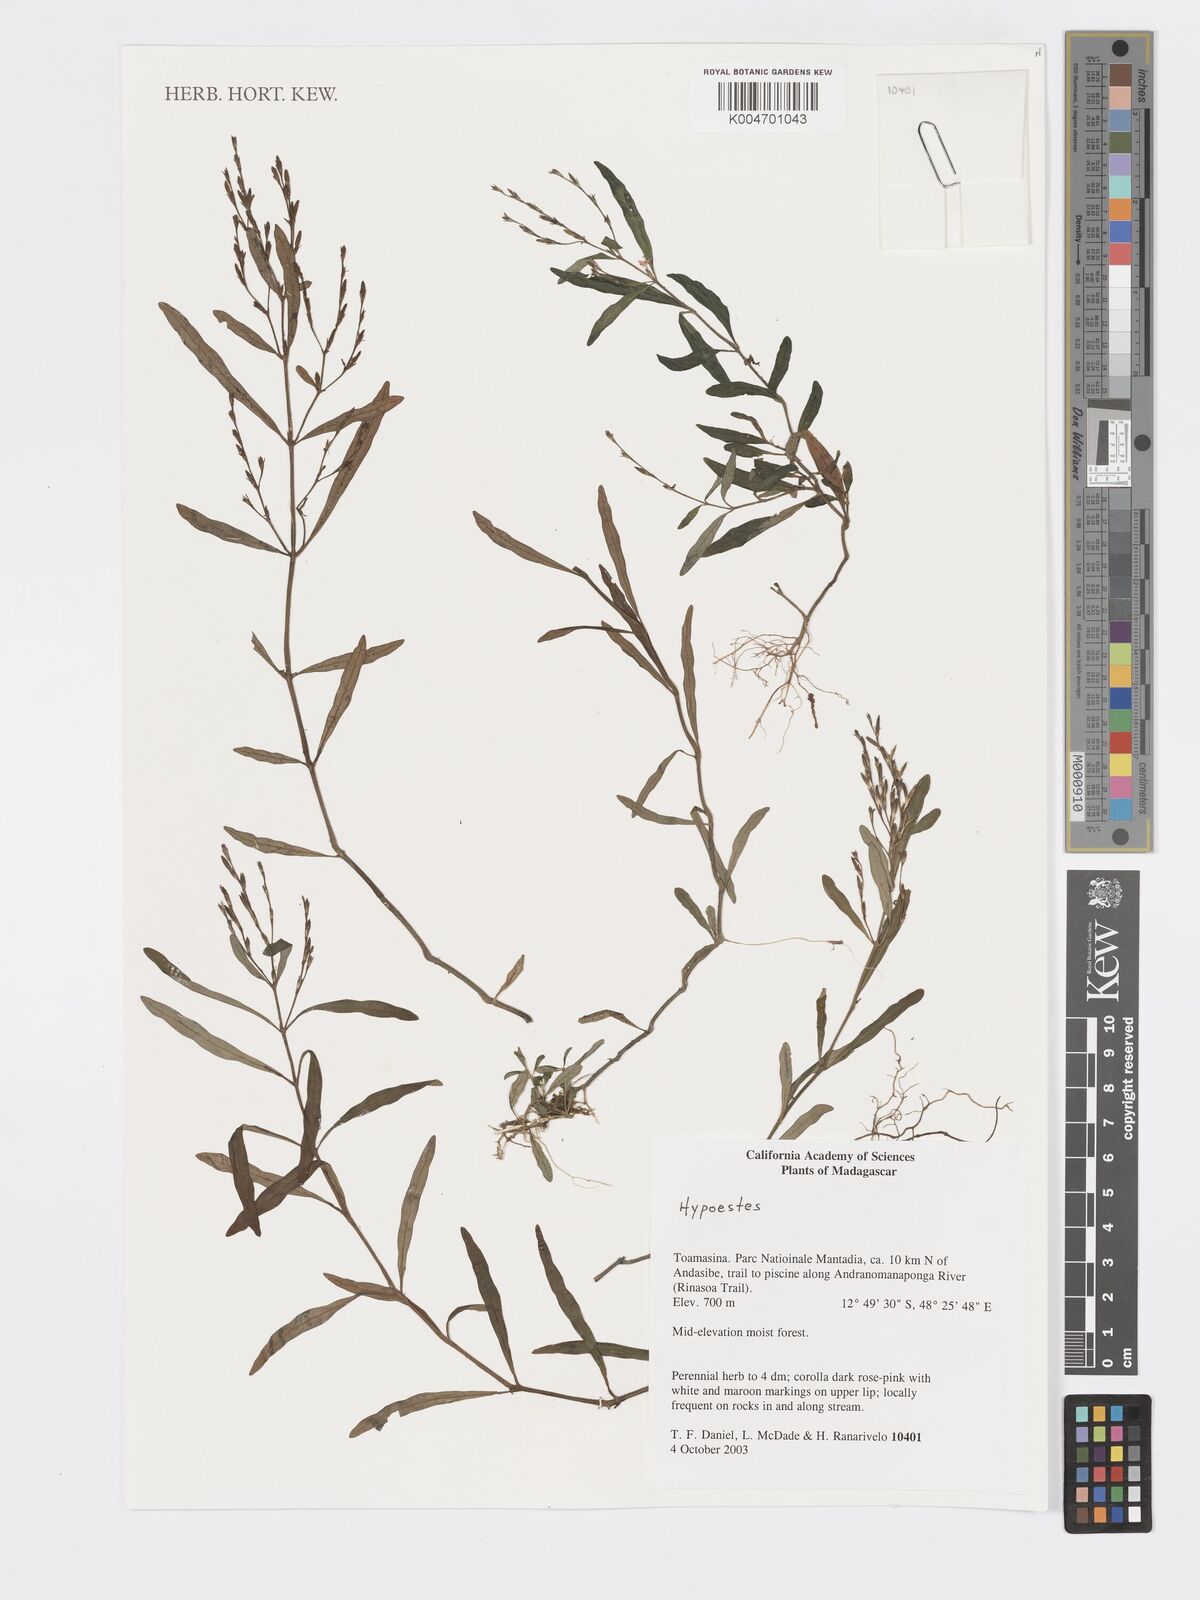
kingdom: Plantae
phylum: Tracheophyta
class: Magnoliopsida
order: Lamiales
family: Acanthaceae
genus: Hypoestes
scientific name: Hypoestes
